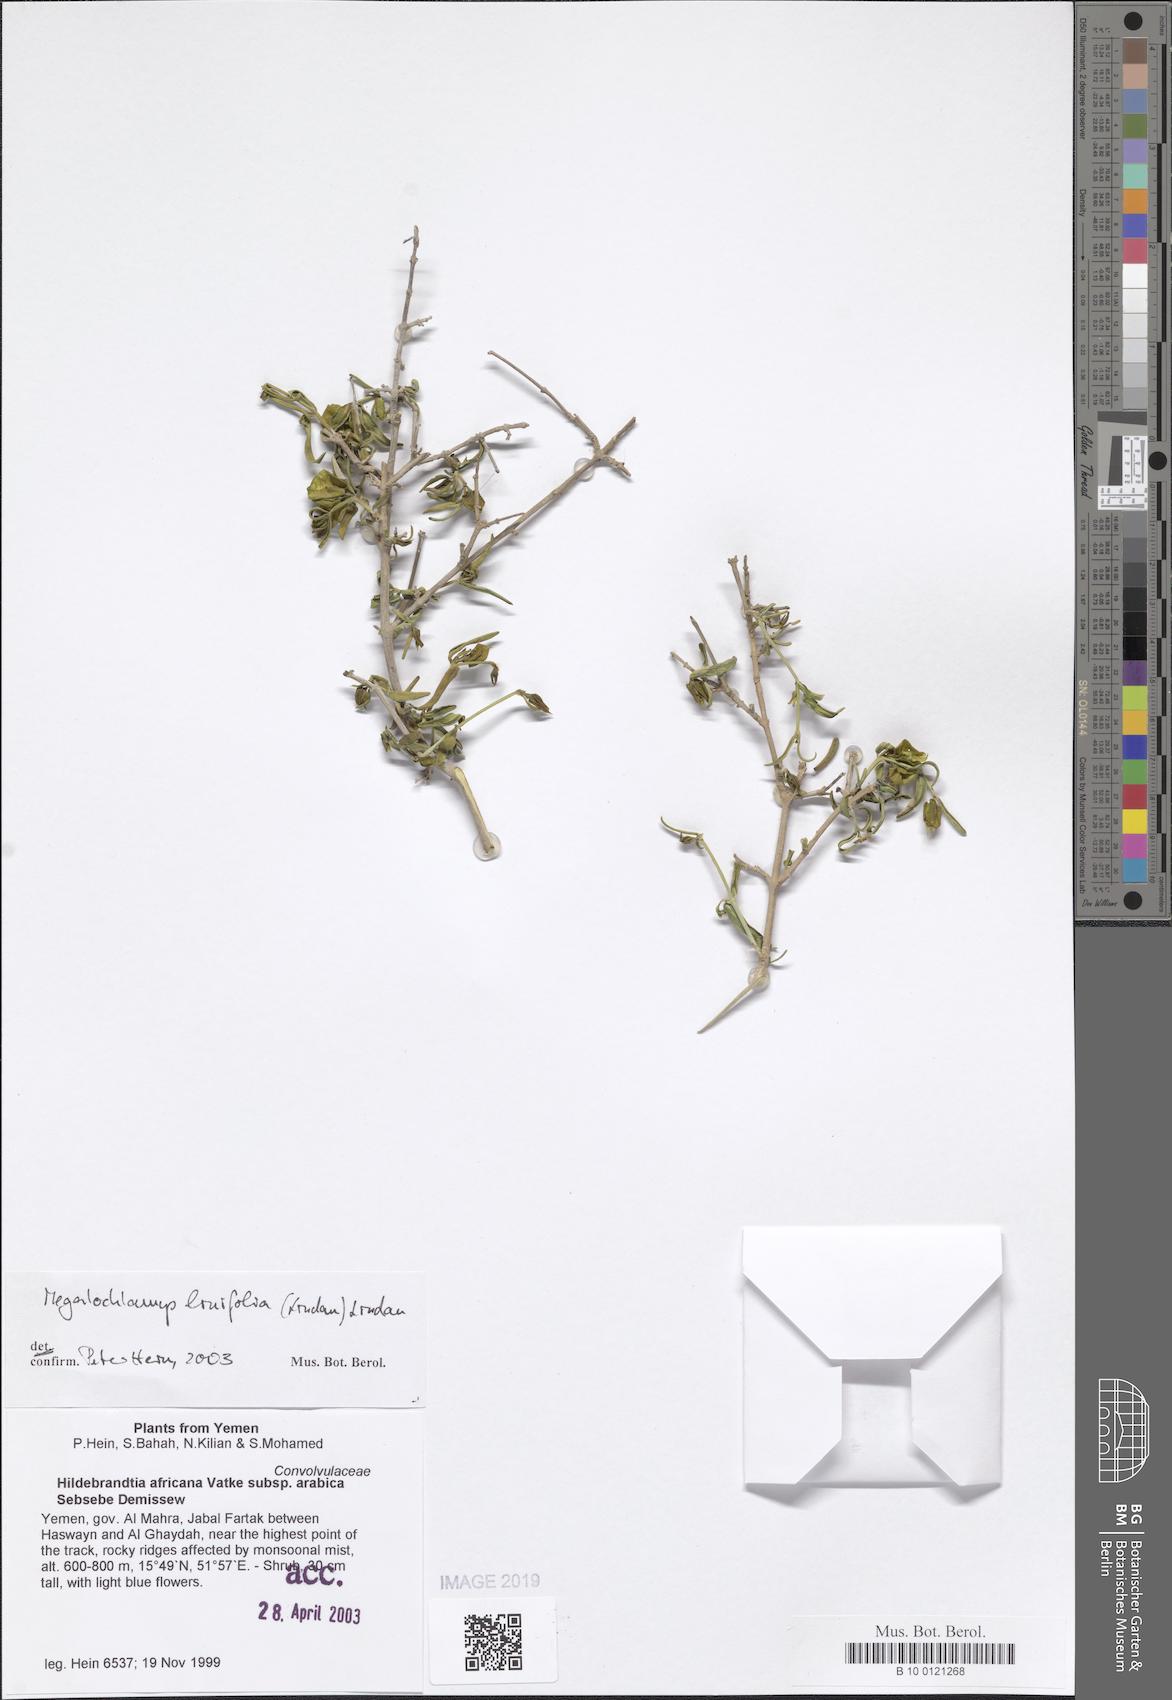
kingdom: Plantae
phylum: Tracheophyta
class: Magnoliopsida
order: Lamiales
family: Acanthaceae
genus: Megalochlamys
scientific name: Megalochlamys linifolia
